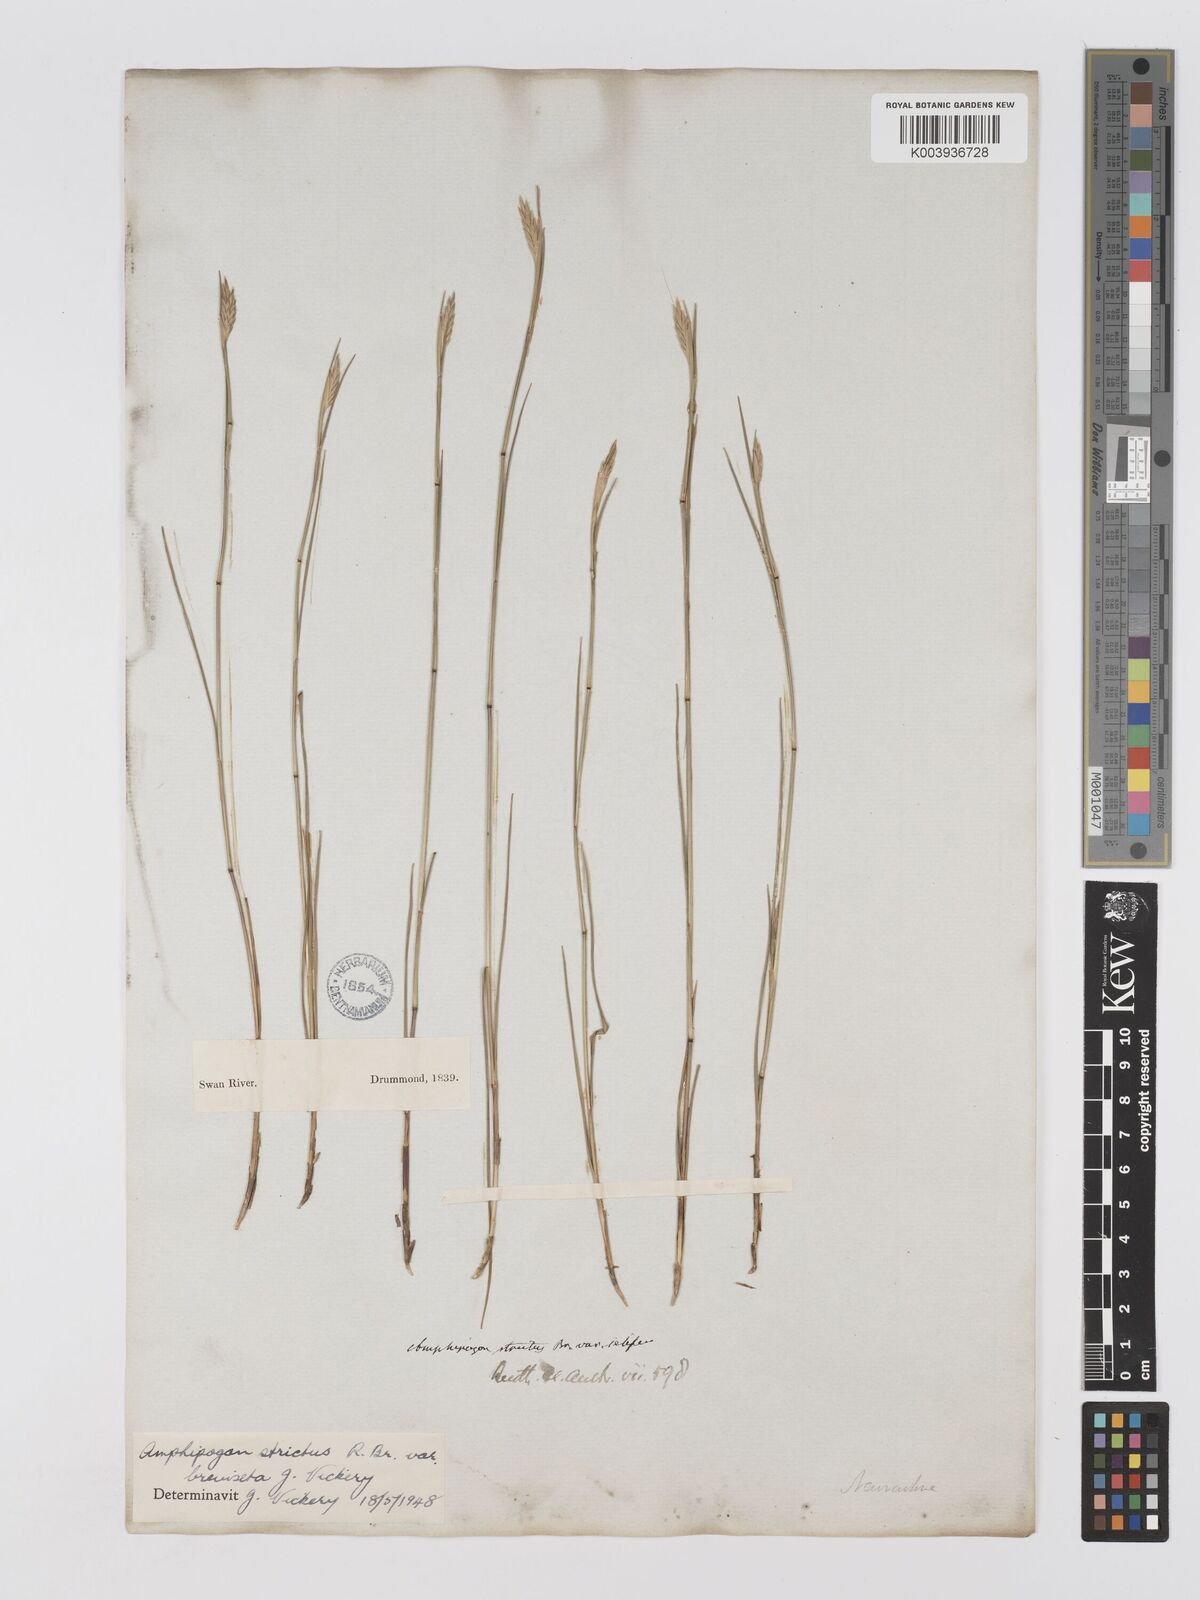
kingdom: Plantae
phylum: Tracheophyta
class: Liliopsida
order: Poales
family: Poaceae
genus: Amphipogon
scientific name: Amphipogon strictus
